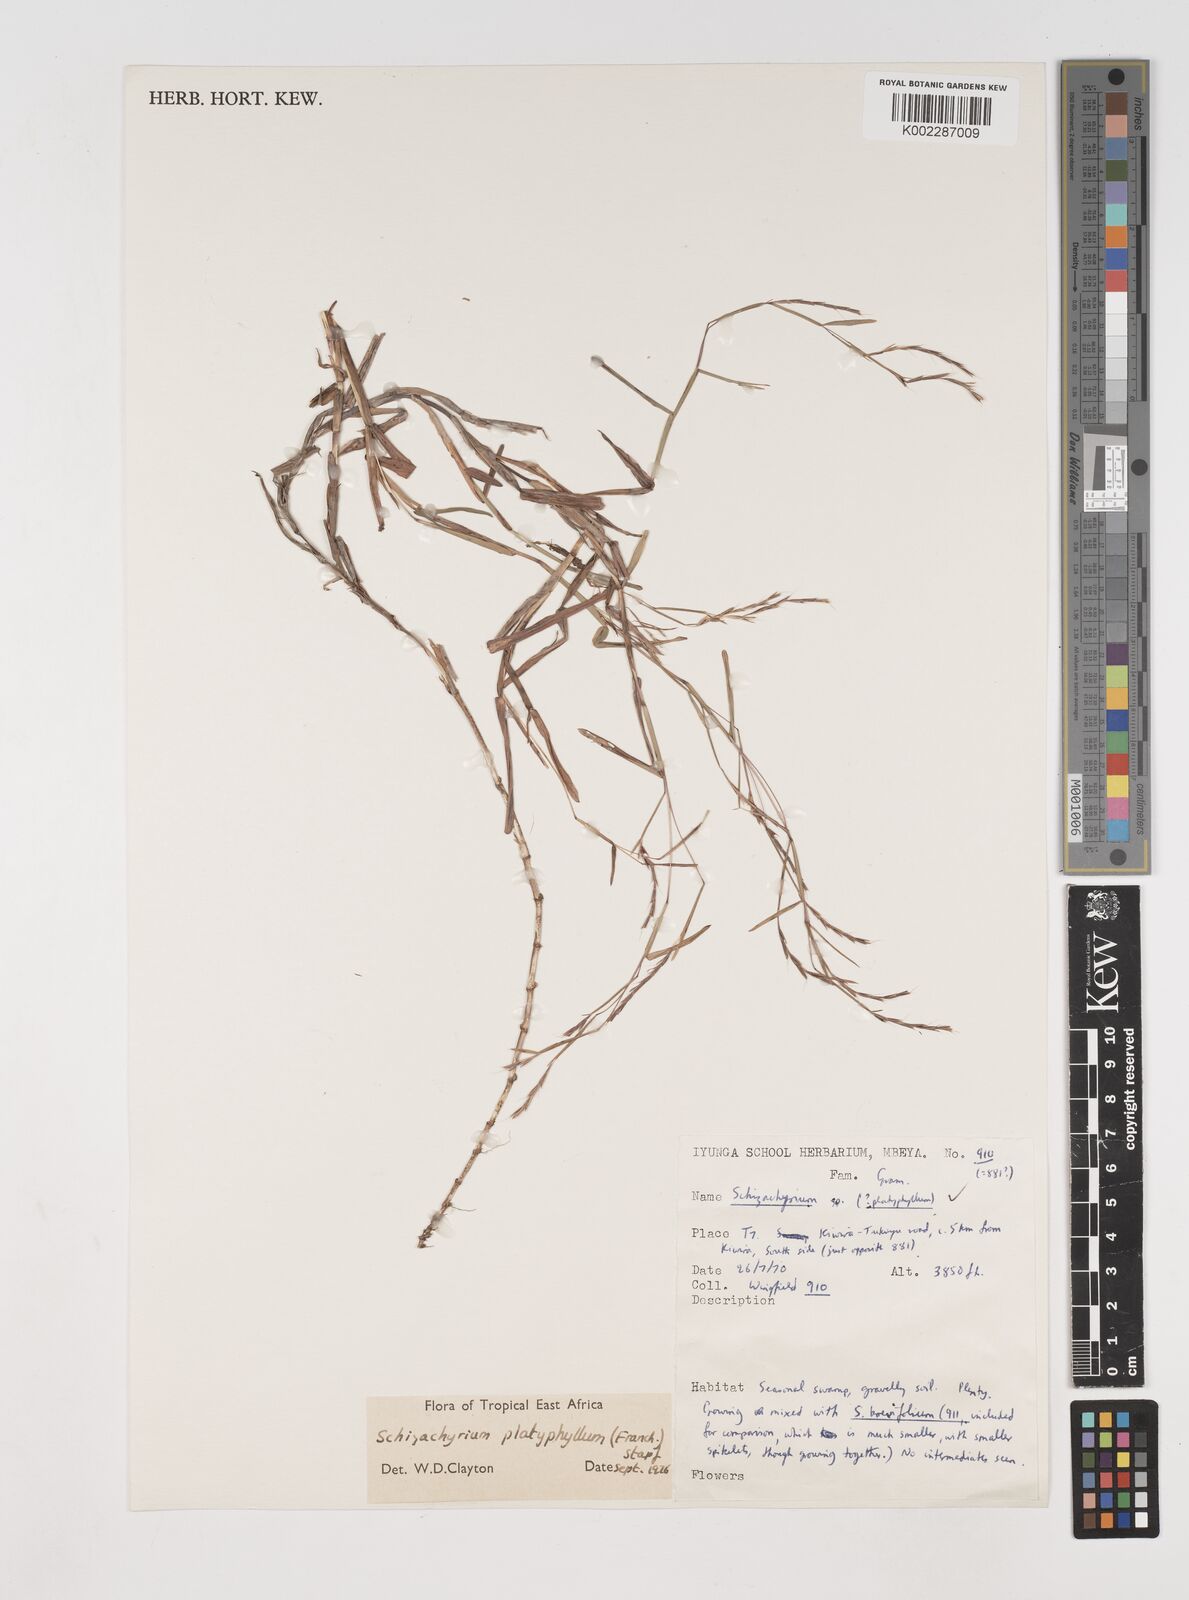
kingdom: Plantae
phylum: Tracheophyta
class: Liliopsida
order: Poales
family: Poaceae
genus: Schizachyrium
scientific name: Schizachyrium platyphyllum
